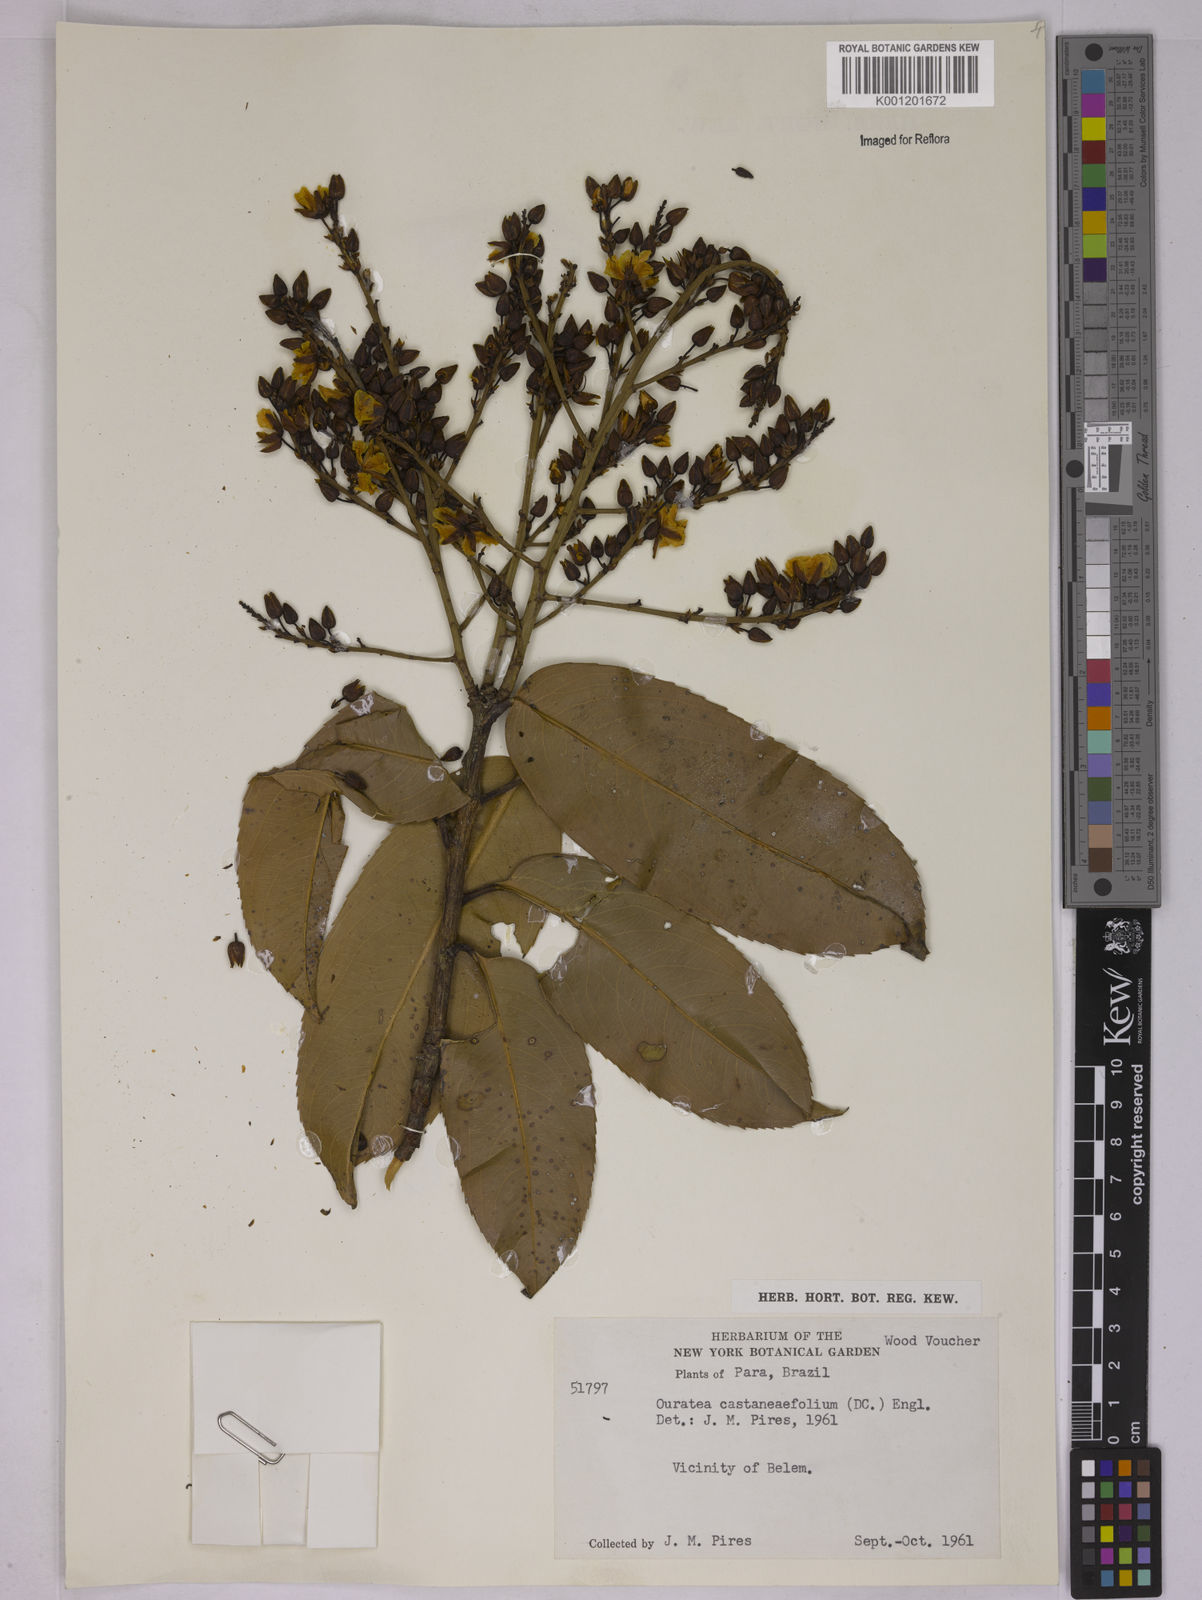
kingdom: Plantae
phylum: Tracheophyta
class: Magnoliopsida
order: Malpighiales
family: Ochnaceae
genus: Ouratea
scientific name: Ouratea castaneifolia
